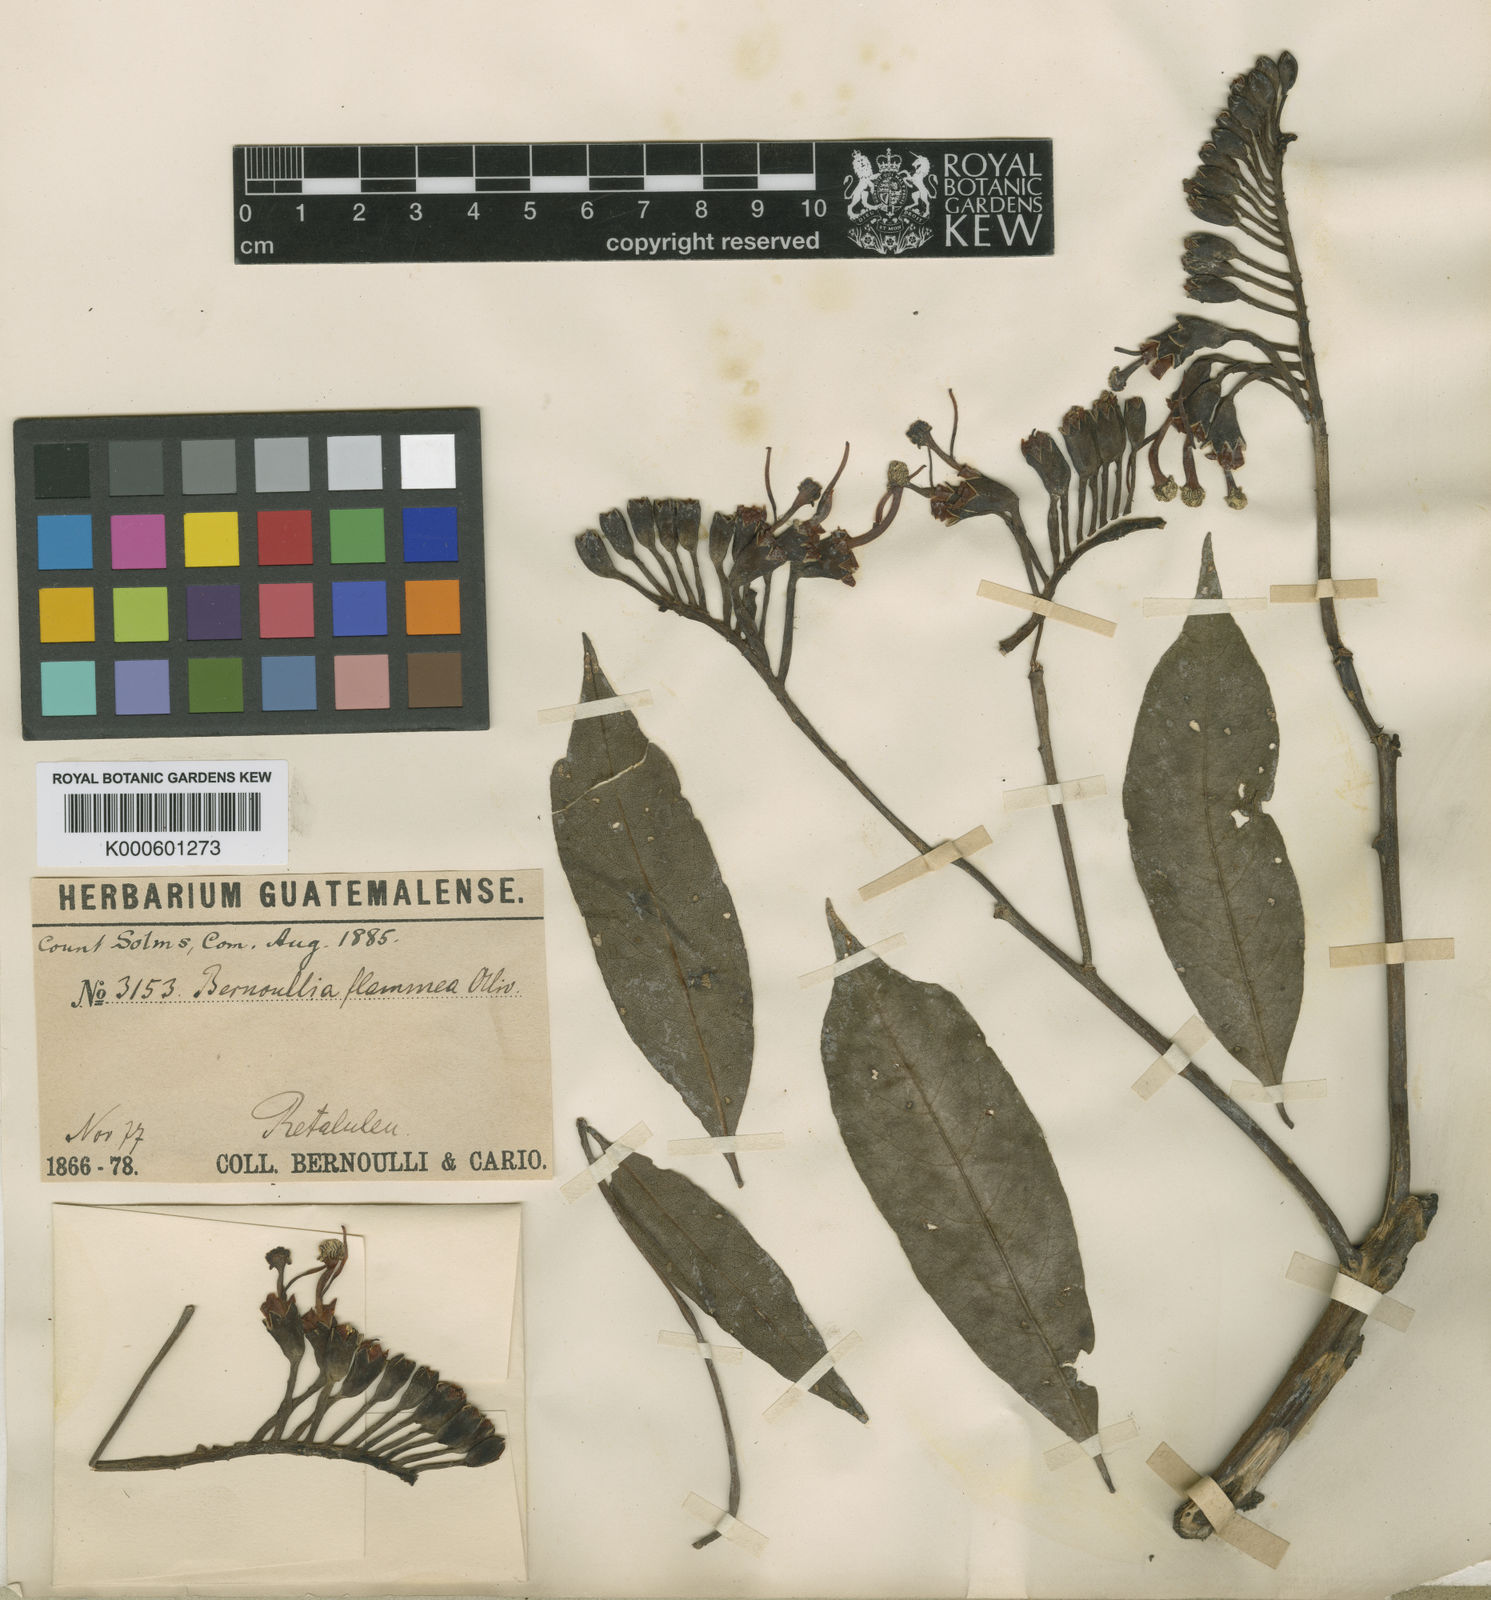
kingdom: Plantae
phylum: Tracheophyta
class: Magnoliopsida
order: Malvales
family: Malvaceae
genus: Bernoullia
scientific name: Bernoullia flammea
